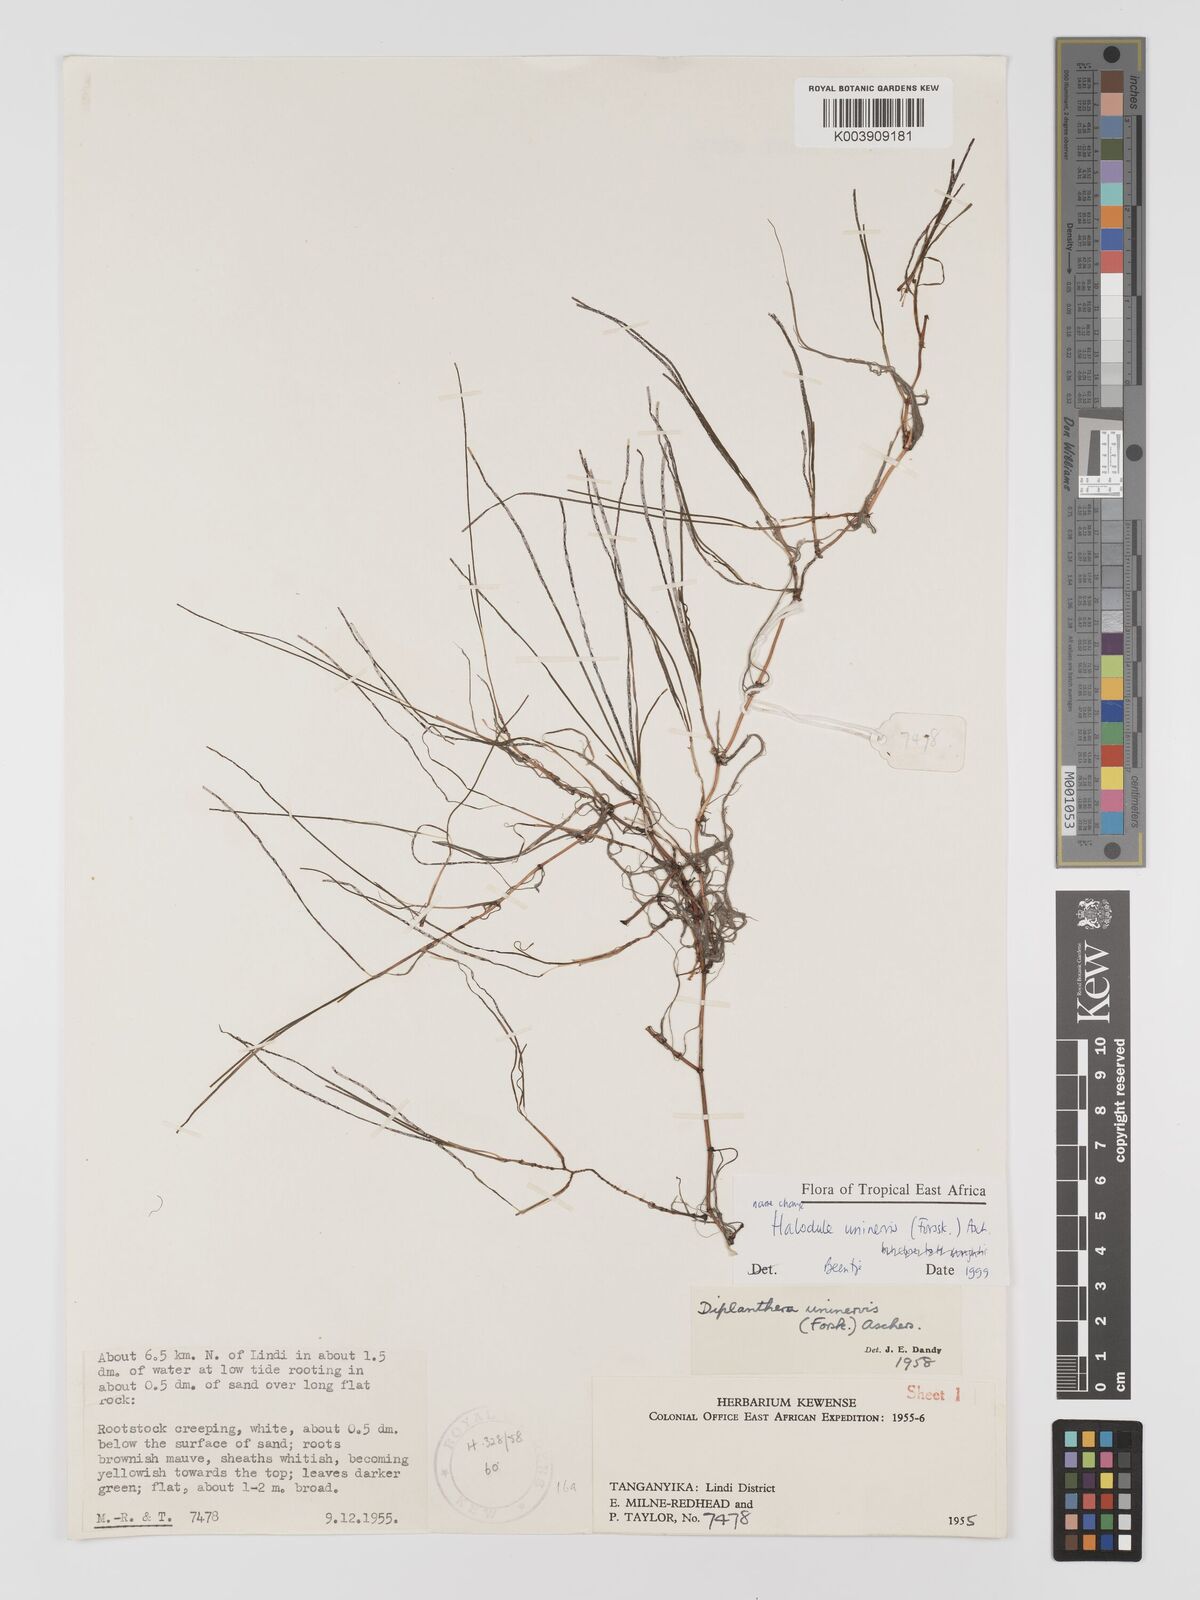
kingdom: Plantae
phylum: Tracheophyta
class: Liliopsida
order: Alismatales
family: Cymodoceaceae
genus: Halodule
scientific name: Halodule uninervis
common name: Narrowleaf seagrass
